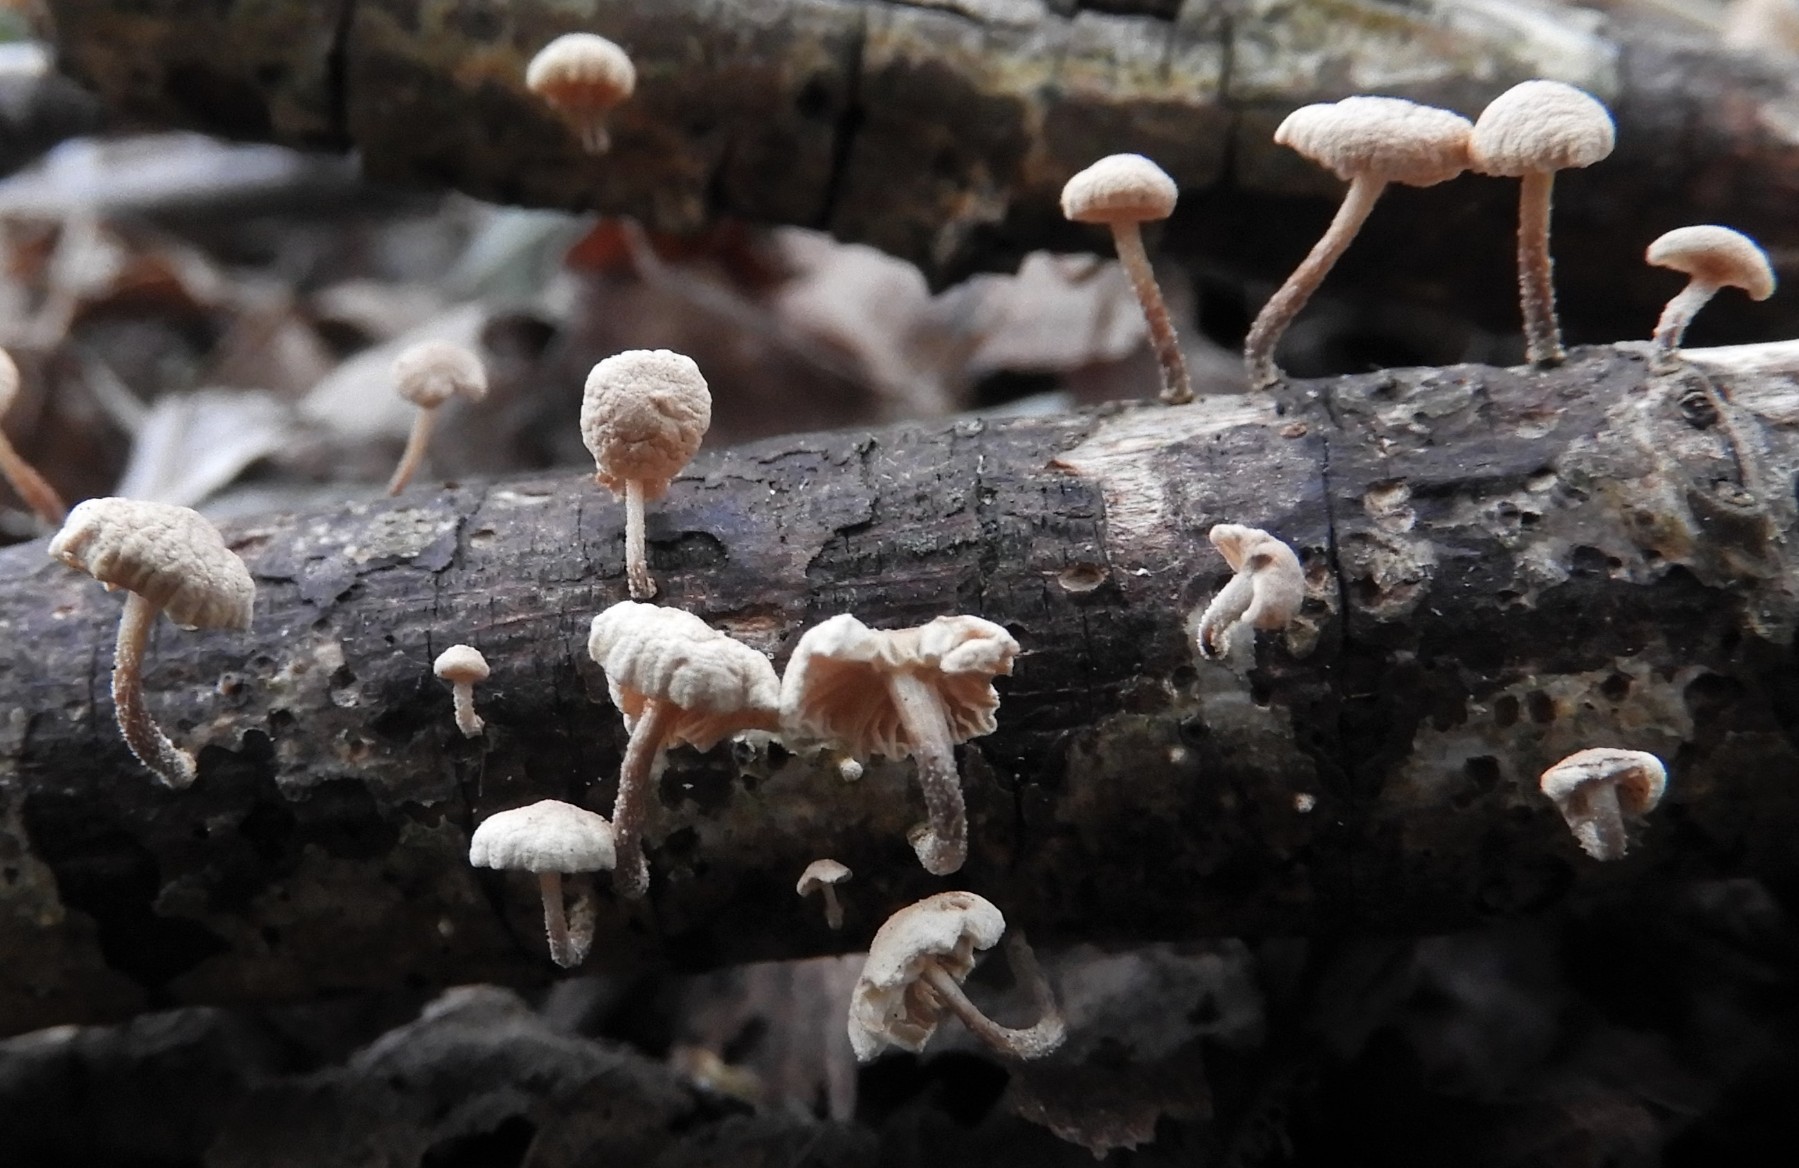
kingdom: Fungi
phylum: Basidiomycota
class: Agaricomycetes
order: Agaricales
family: Omphalotaceae
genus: Collybiopsis
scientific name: Collybiopsis ramealis
